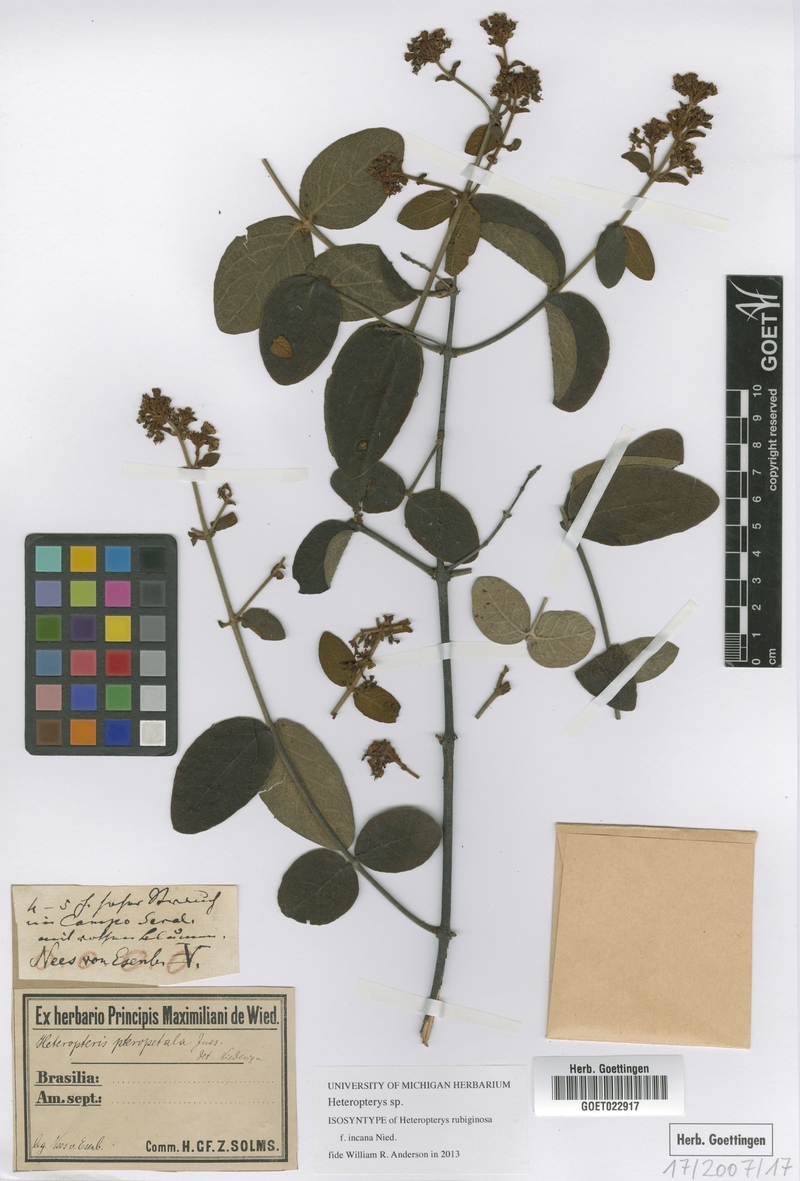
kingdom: Plantae
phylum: Tracheophyta
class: Magnoliopsida
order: Malpighiales
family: Malpighiaceae
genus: Heteropterys
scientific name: Heteropterys
